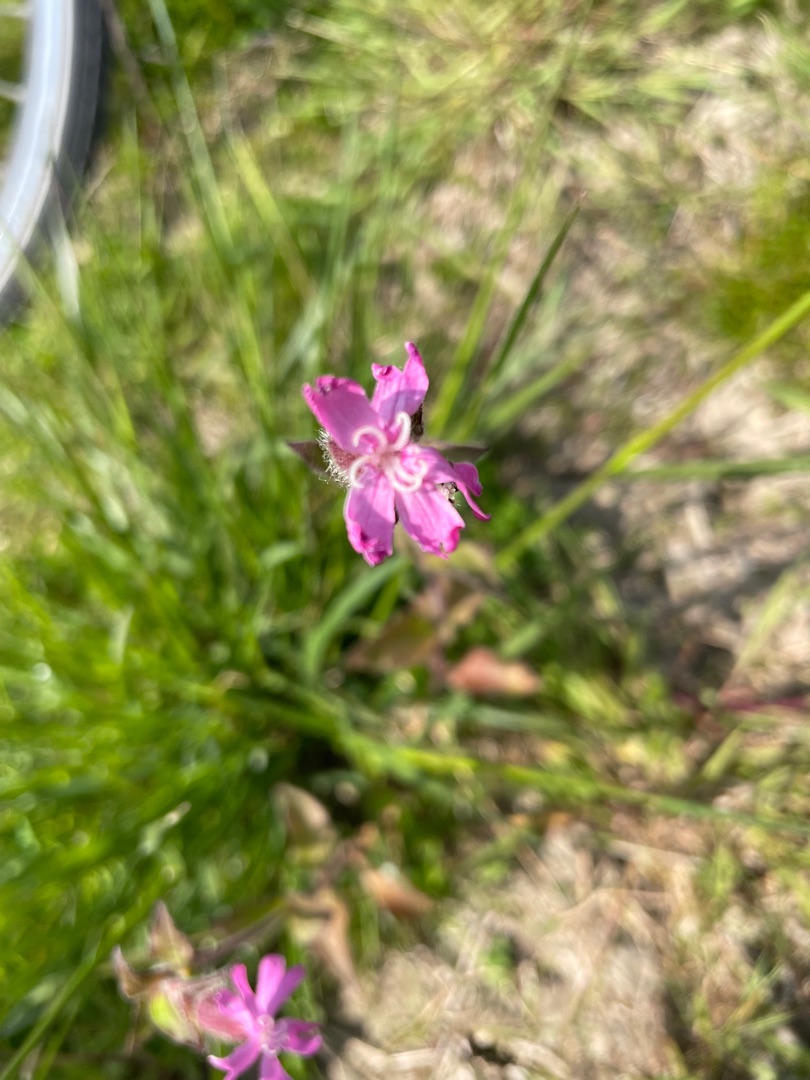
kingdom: Plantae
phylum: Tracheophyta
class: Magnoliopsida
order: Caryophyllales
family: Caryophyllaceae
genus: Silene
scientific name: Silene dioica
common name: Dagpragtstjerne
